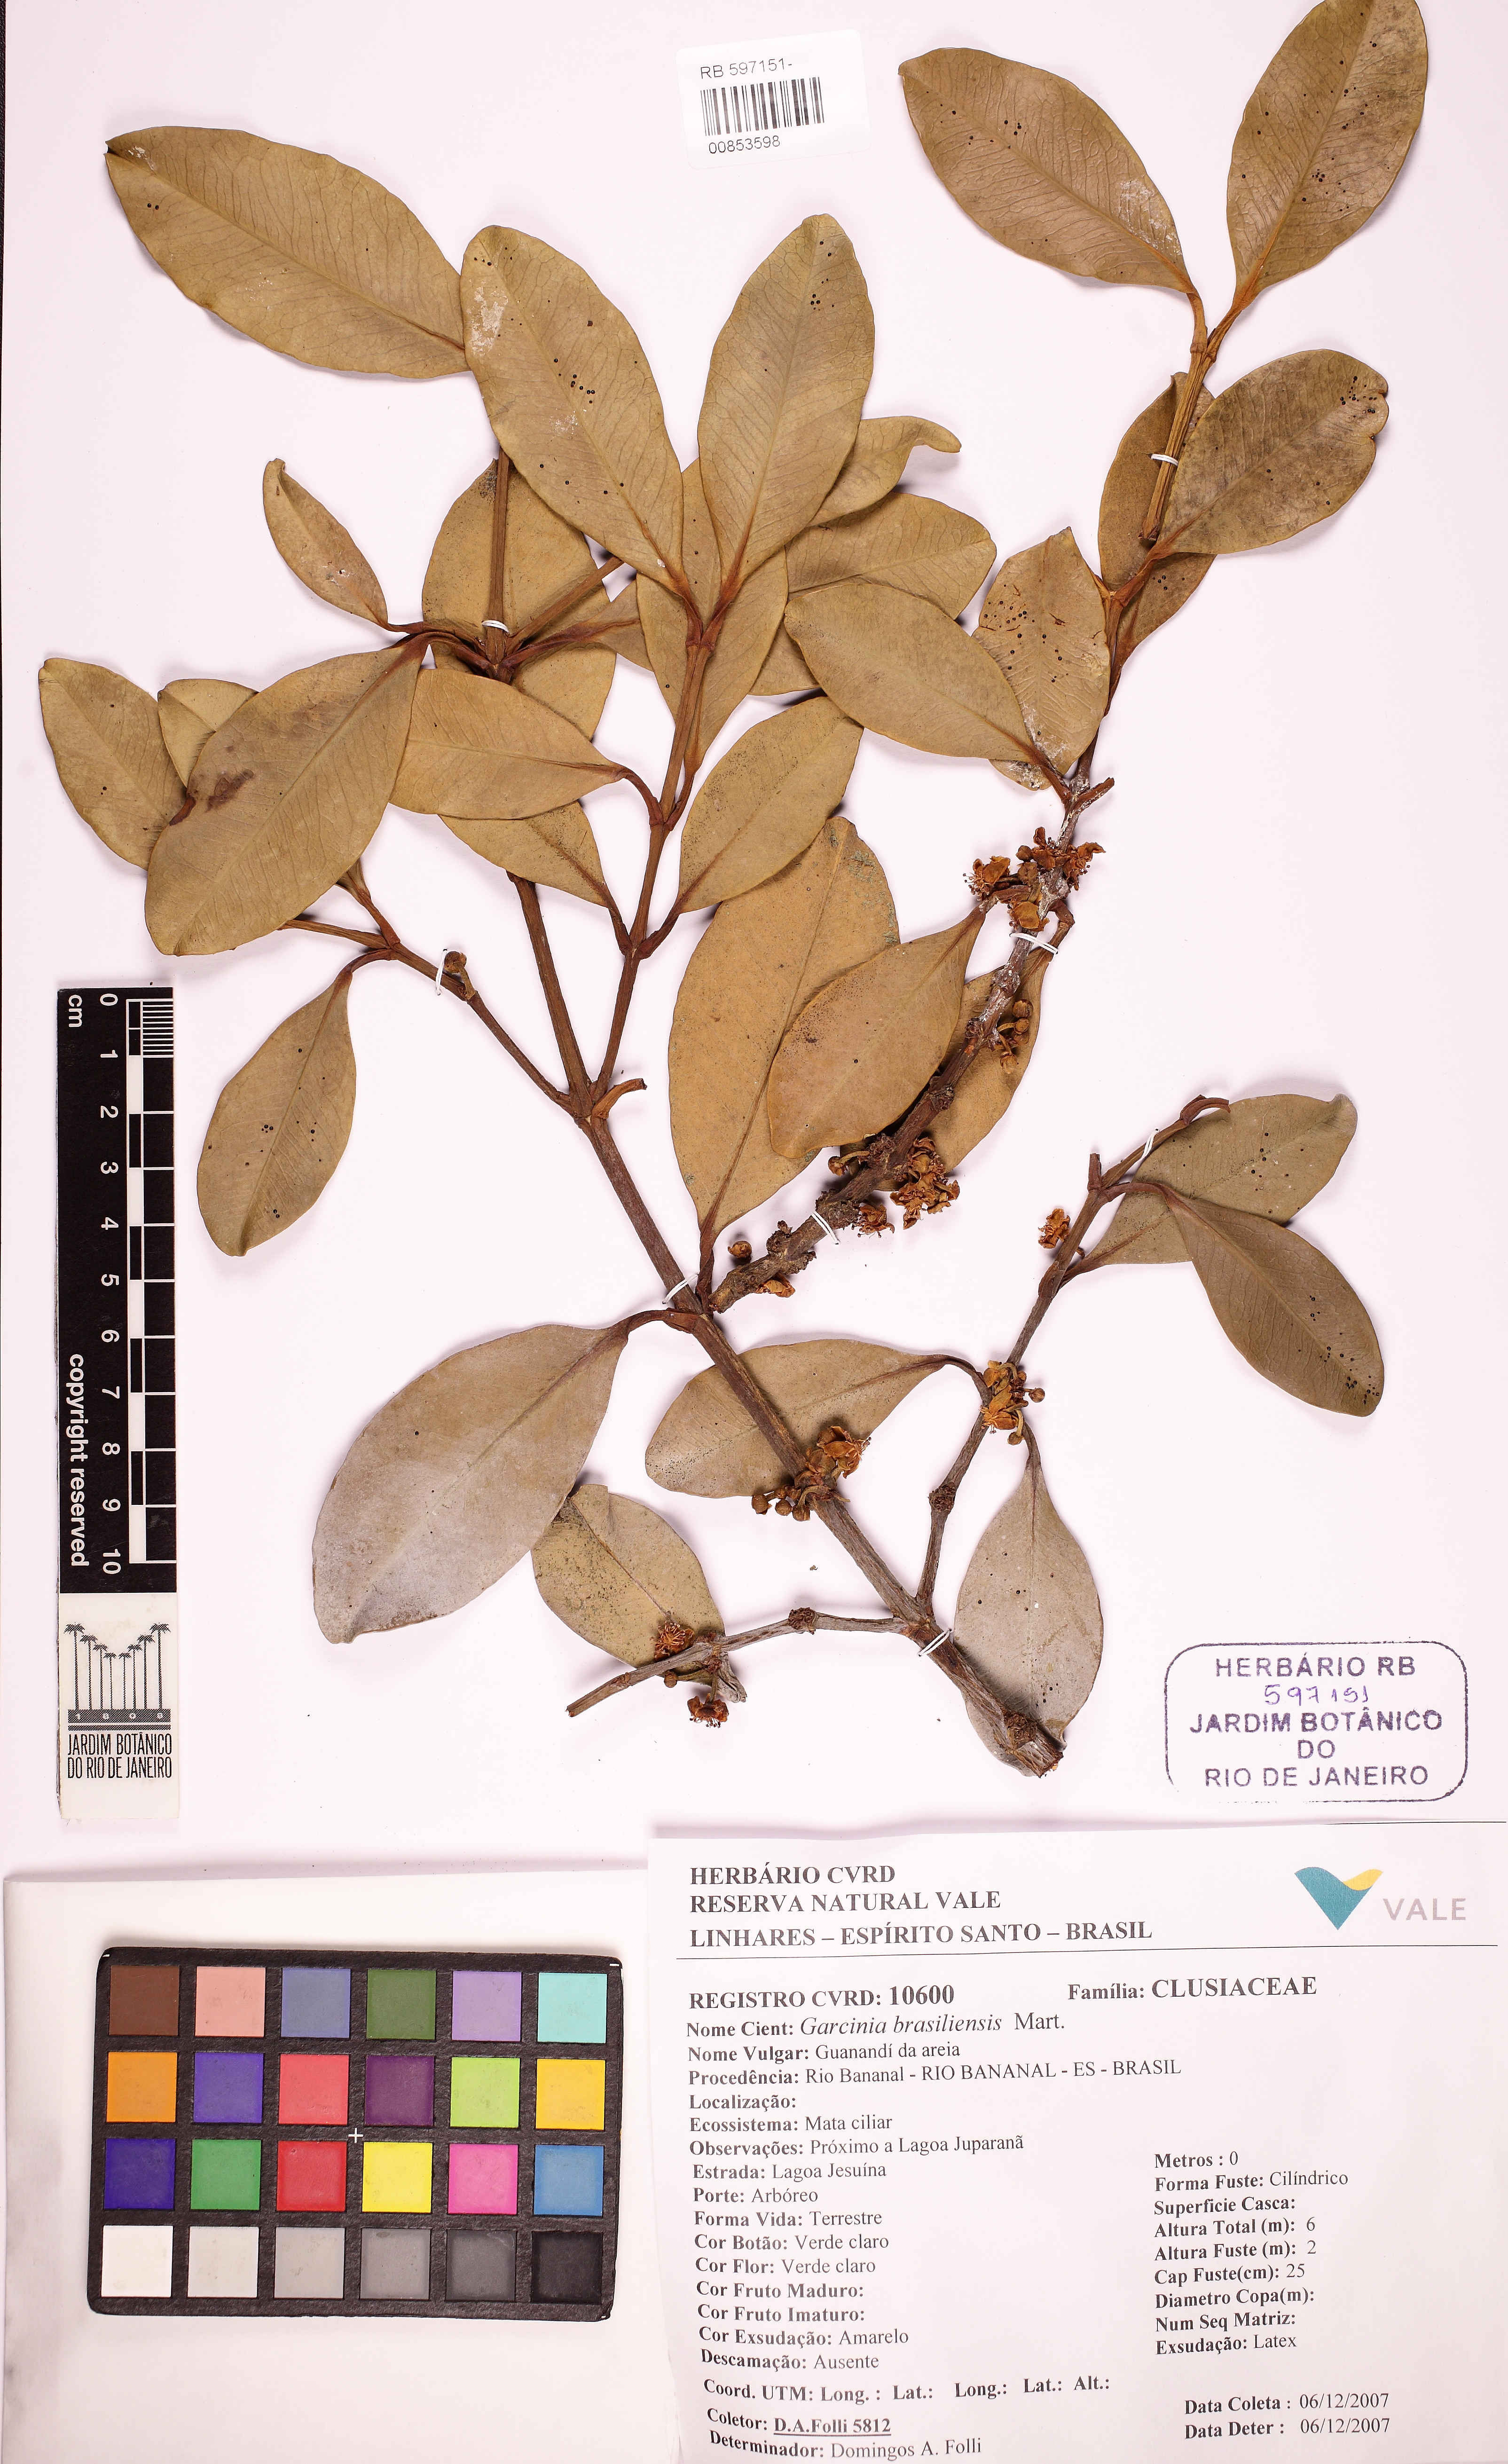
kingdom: Plantae
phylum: Tracheophyta
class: Magnoliopsida
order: Malpighiales
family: Clusiaceae
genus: Garcinia
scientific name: Garcinia brasiliensis
